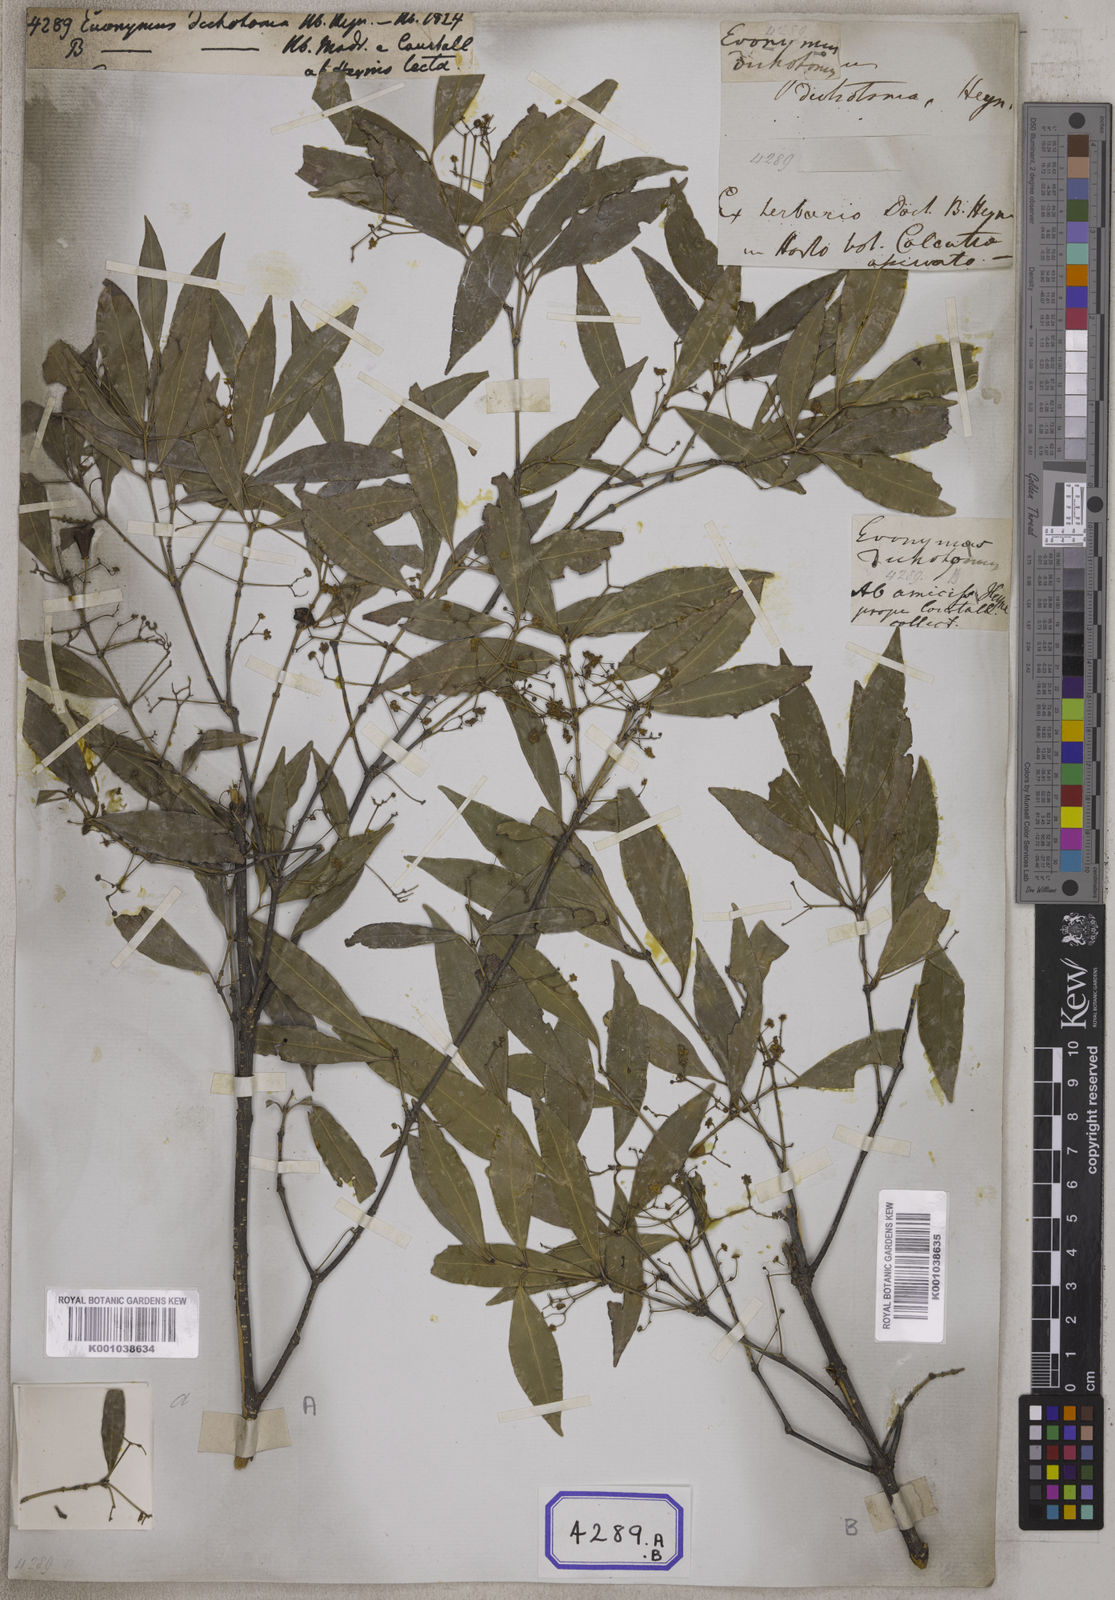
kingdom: Plantae
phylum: Tracheophyta
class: Magnoliopsida
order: Celastrales
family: Celastraceae
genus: Euonymus
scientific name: Euonymus dichotomus
